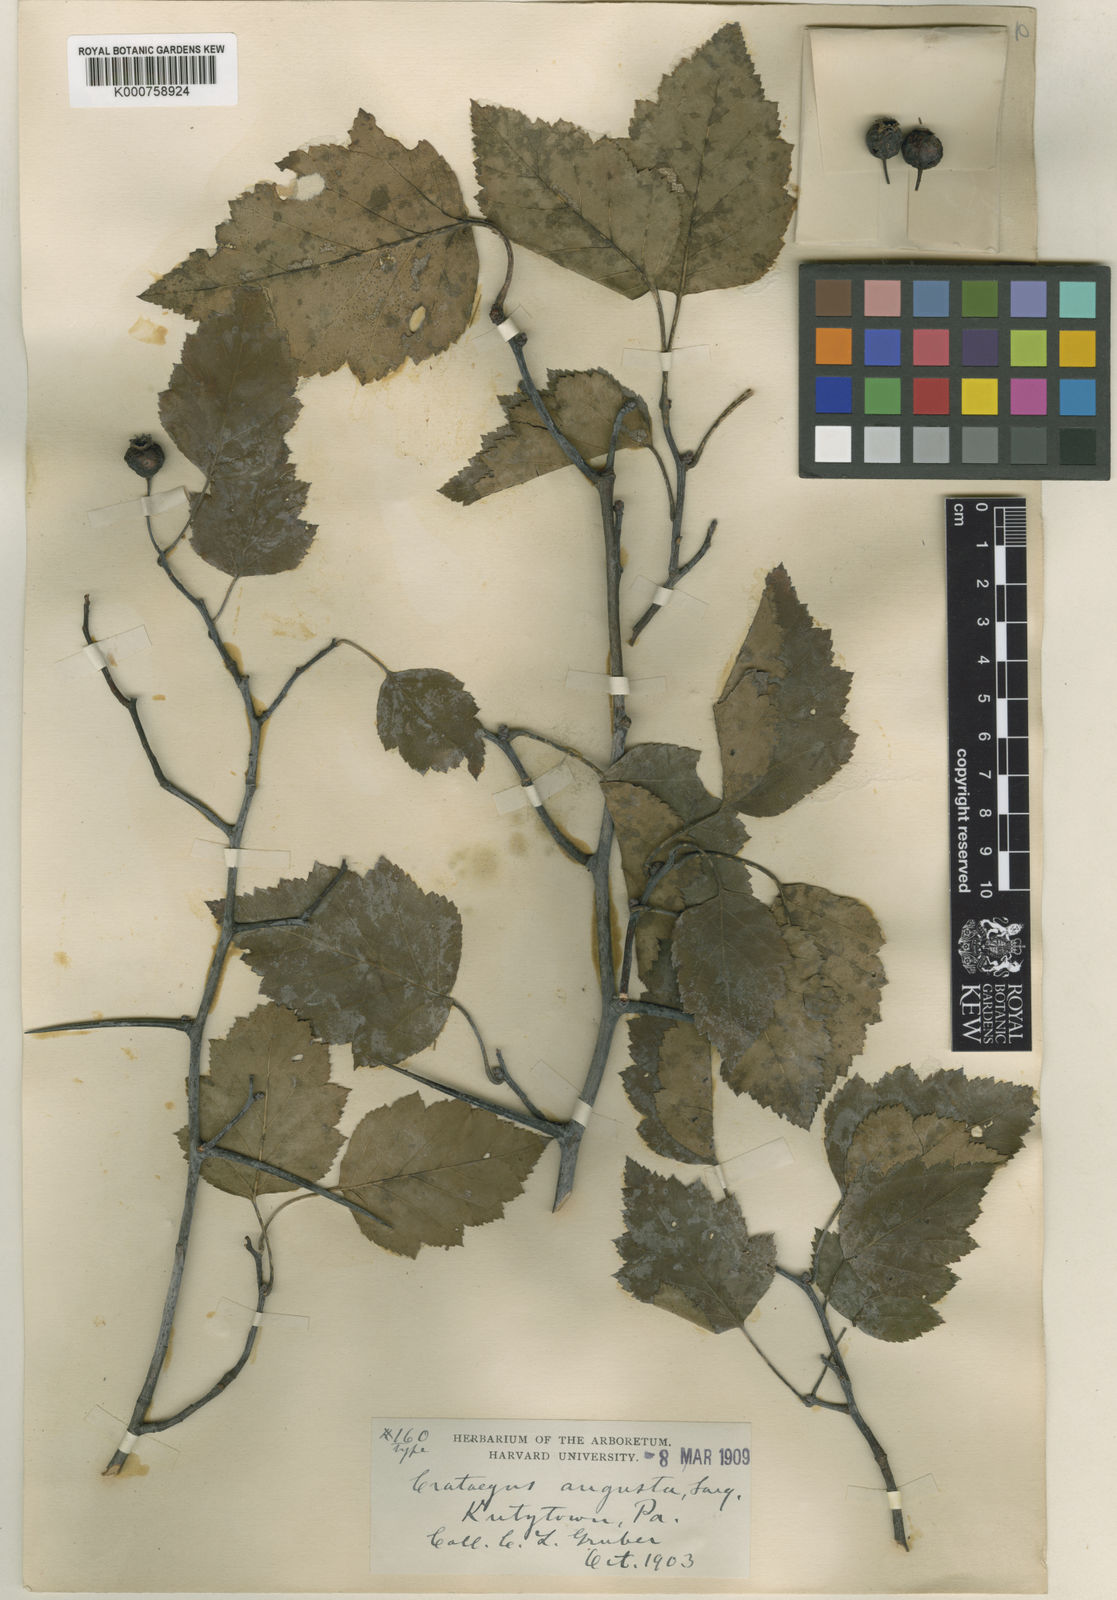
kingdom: Plantae
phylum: Tracheophyta
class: Magnoliopsida
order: Rosales
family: Rosaceae
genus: Crataegus
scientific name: Crataegus augusta
